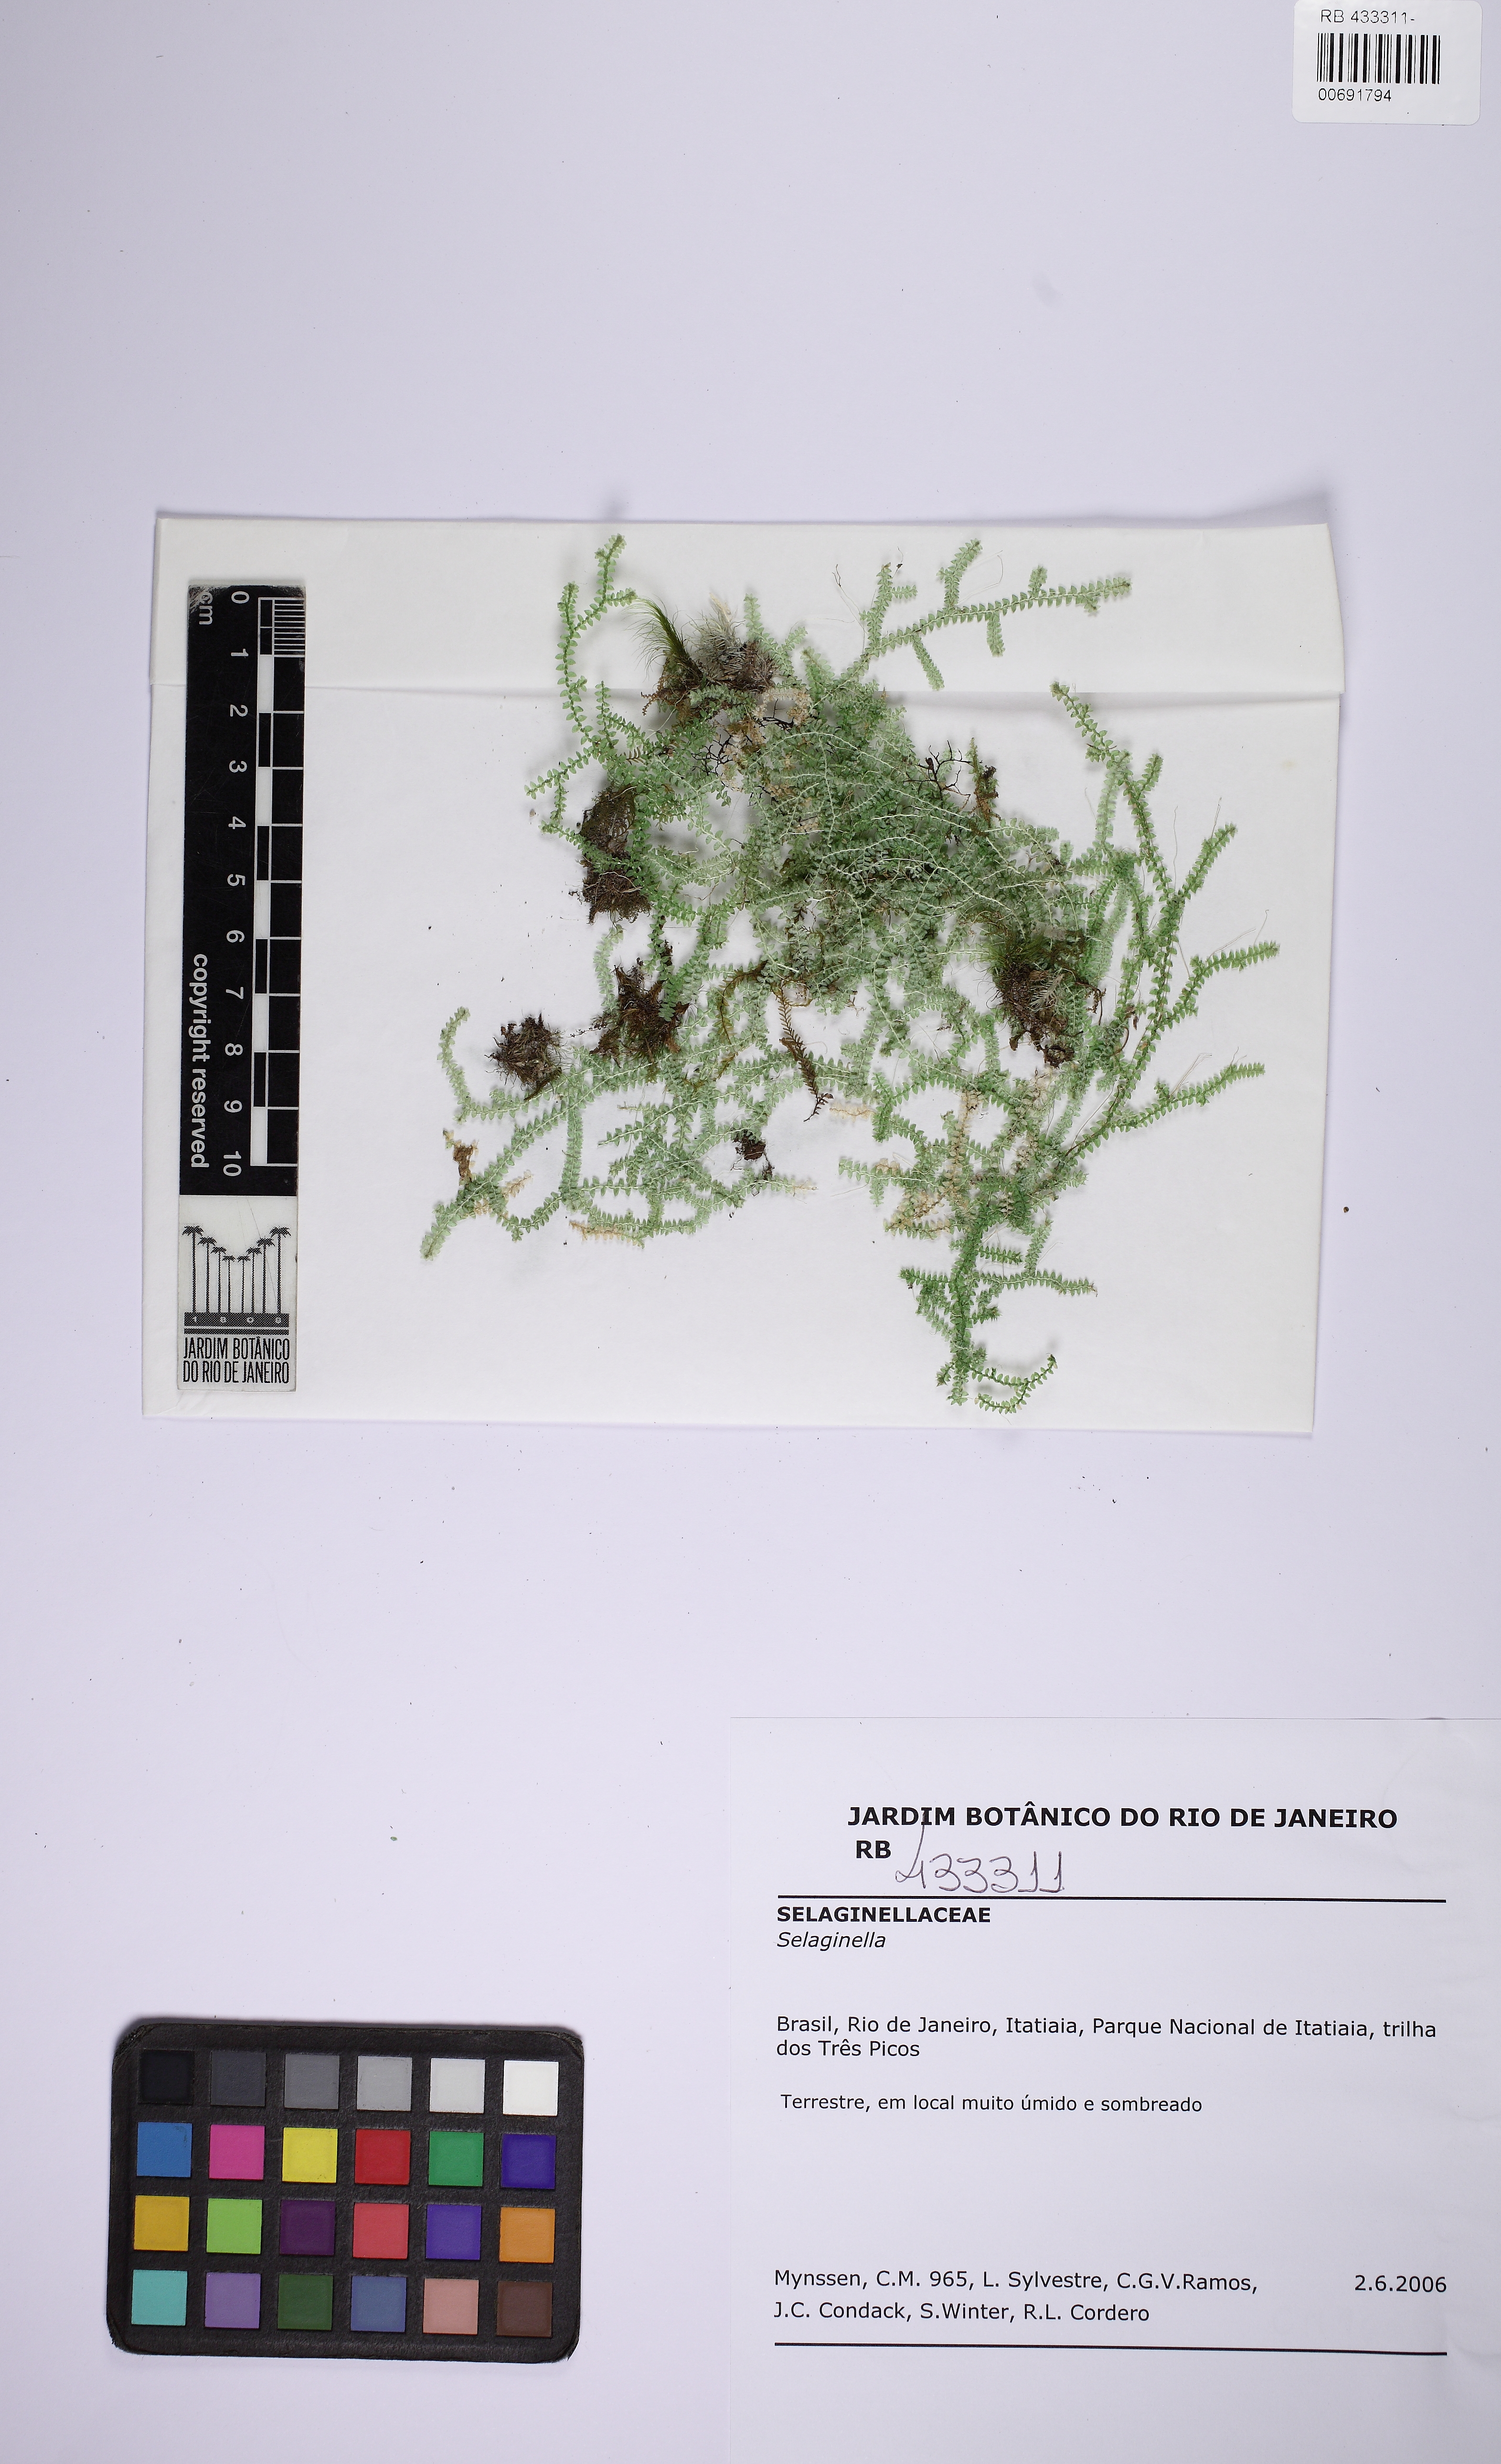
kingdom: Plantae
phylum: Tracheophyta
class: Lycopodiopsida
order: Selaginellales
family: Selaginellaceae
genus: Selaginella
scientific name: Selaginella tenuissima
